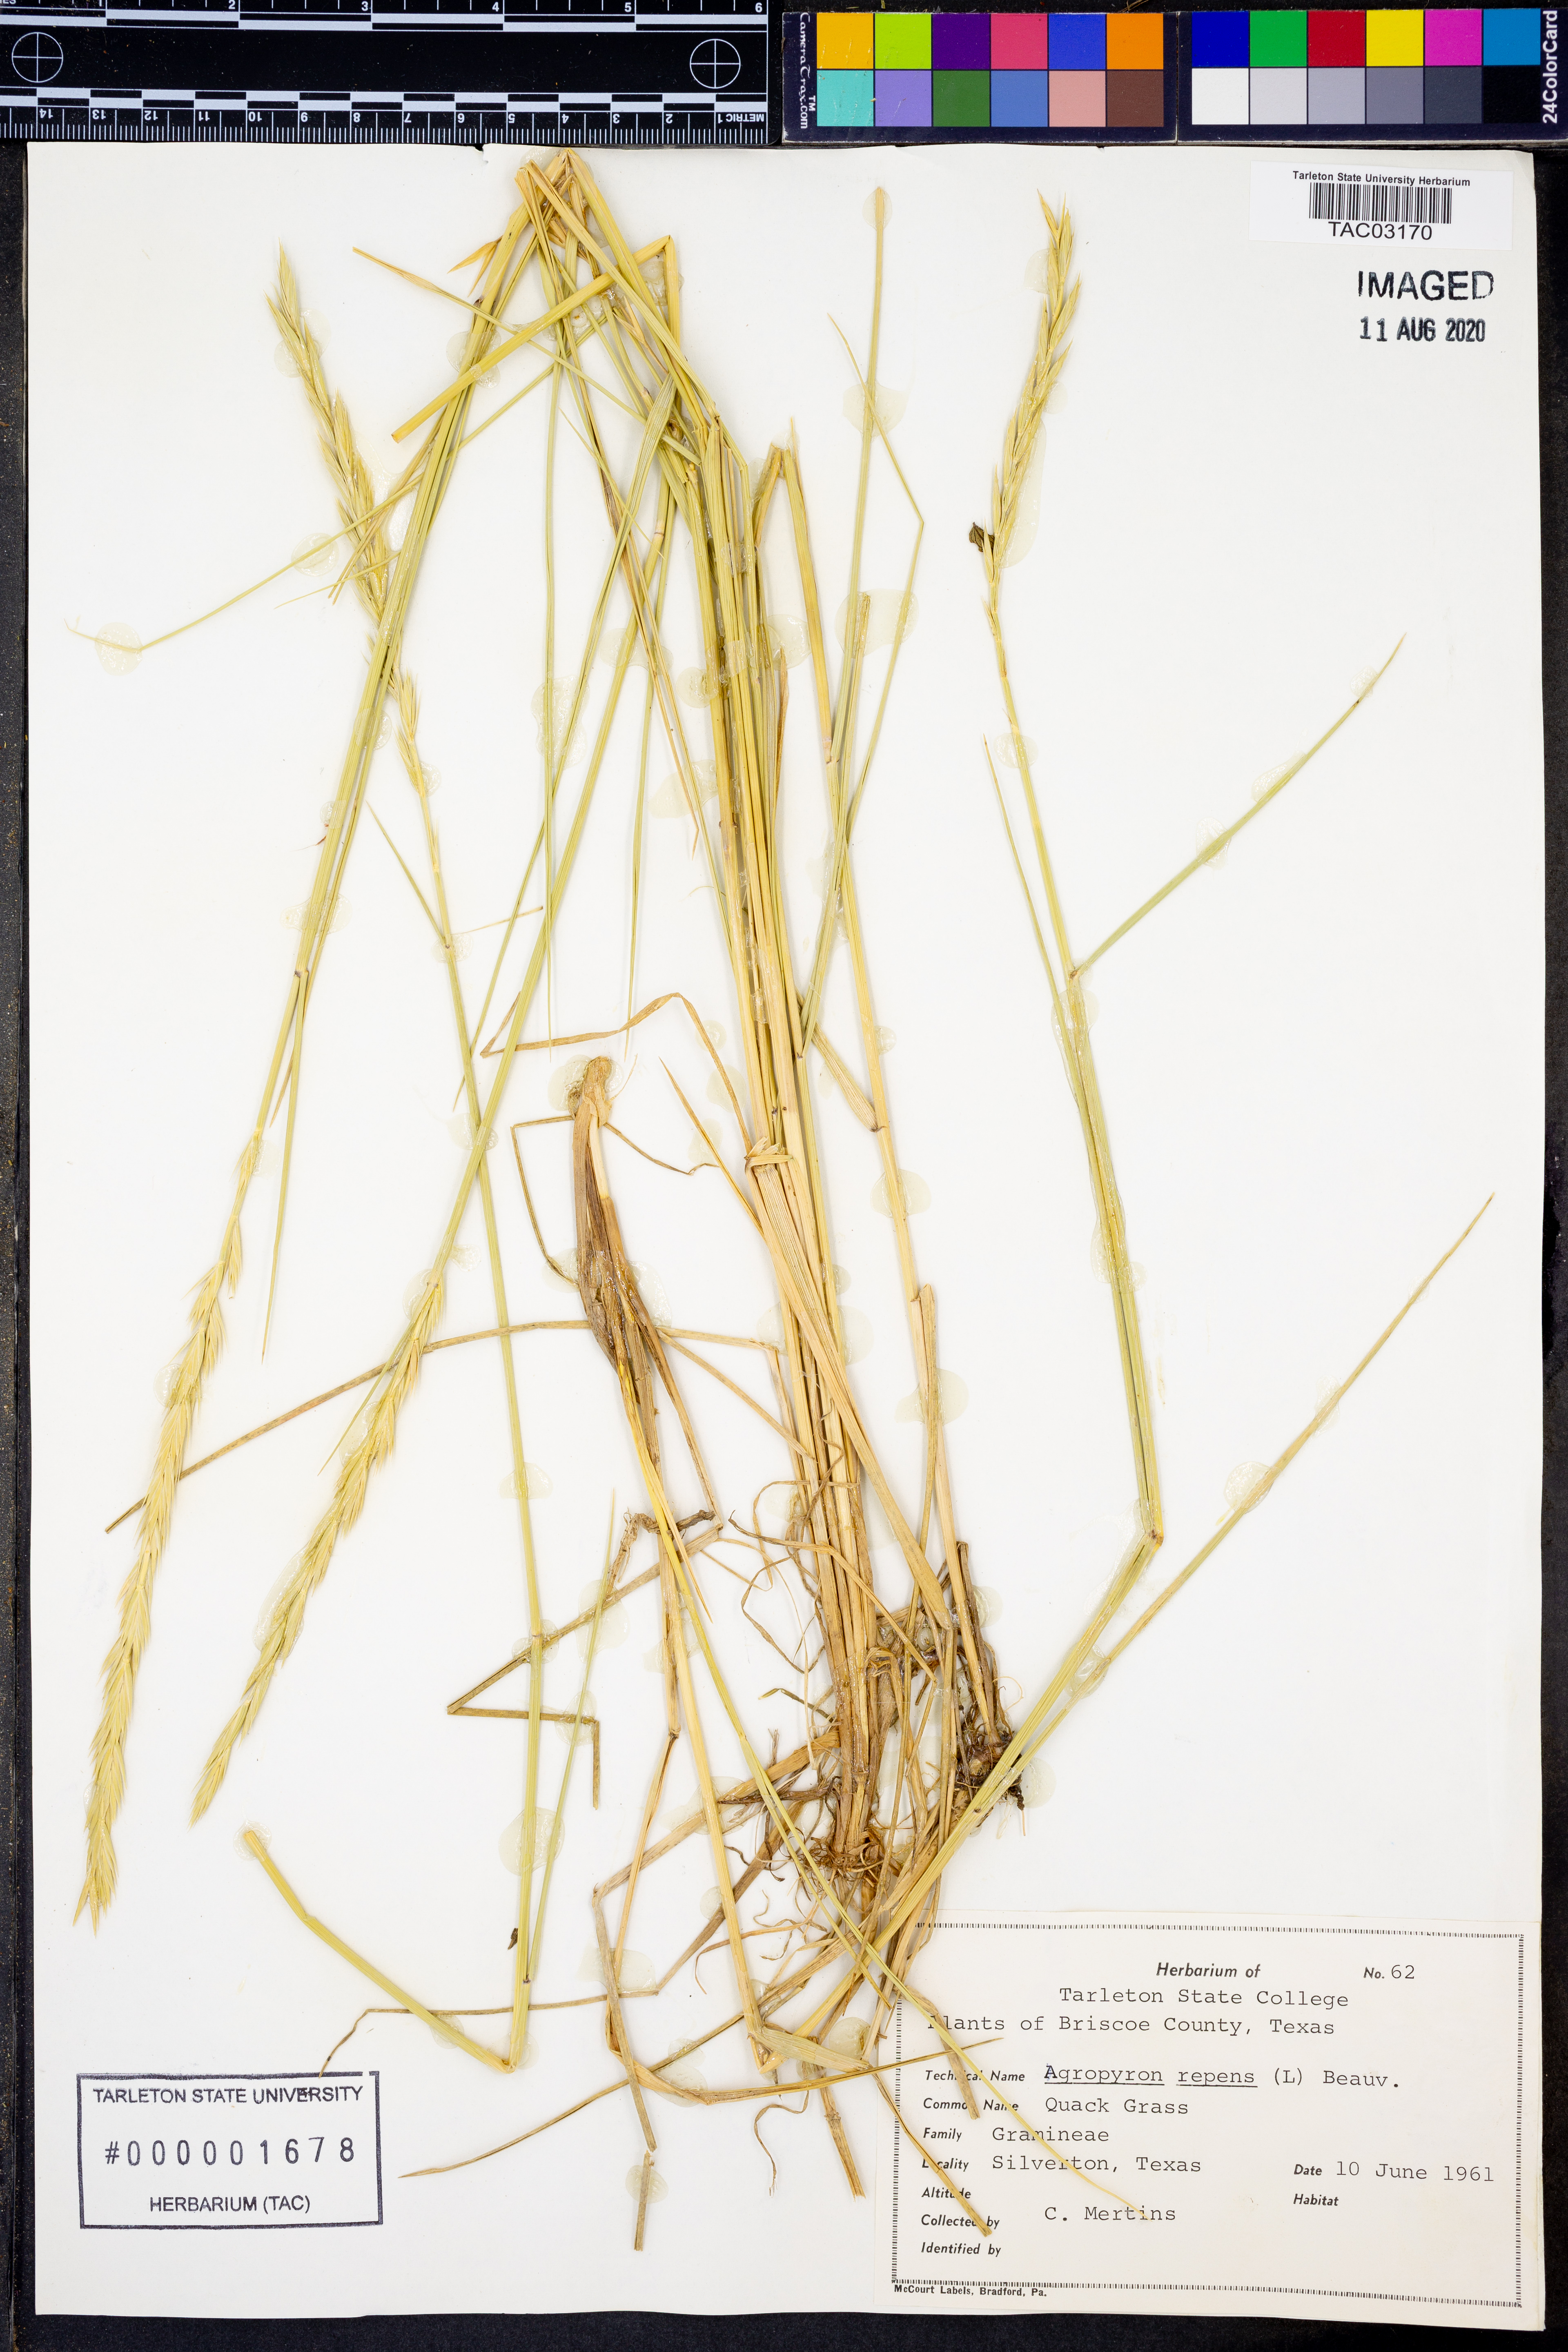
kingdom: Plantae
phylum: Tracheophyta
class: Liliopsida
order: Poales
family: Poaceae
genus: Elymus
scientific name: Elymus repens
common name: Quackgrass
